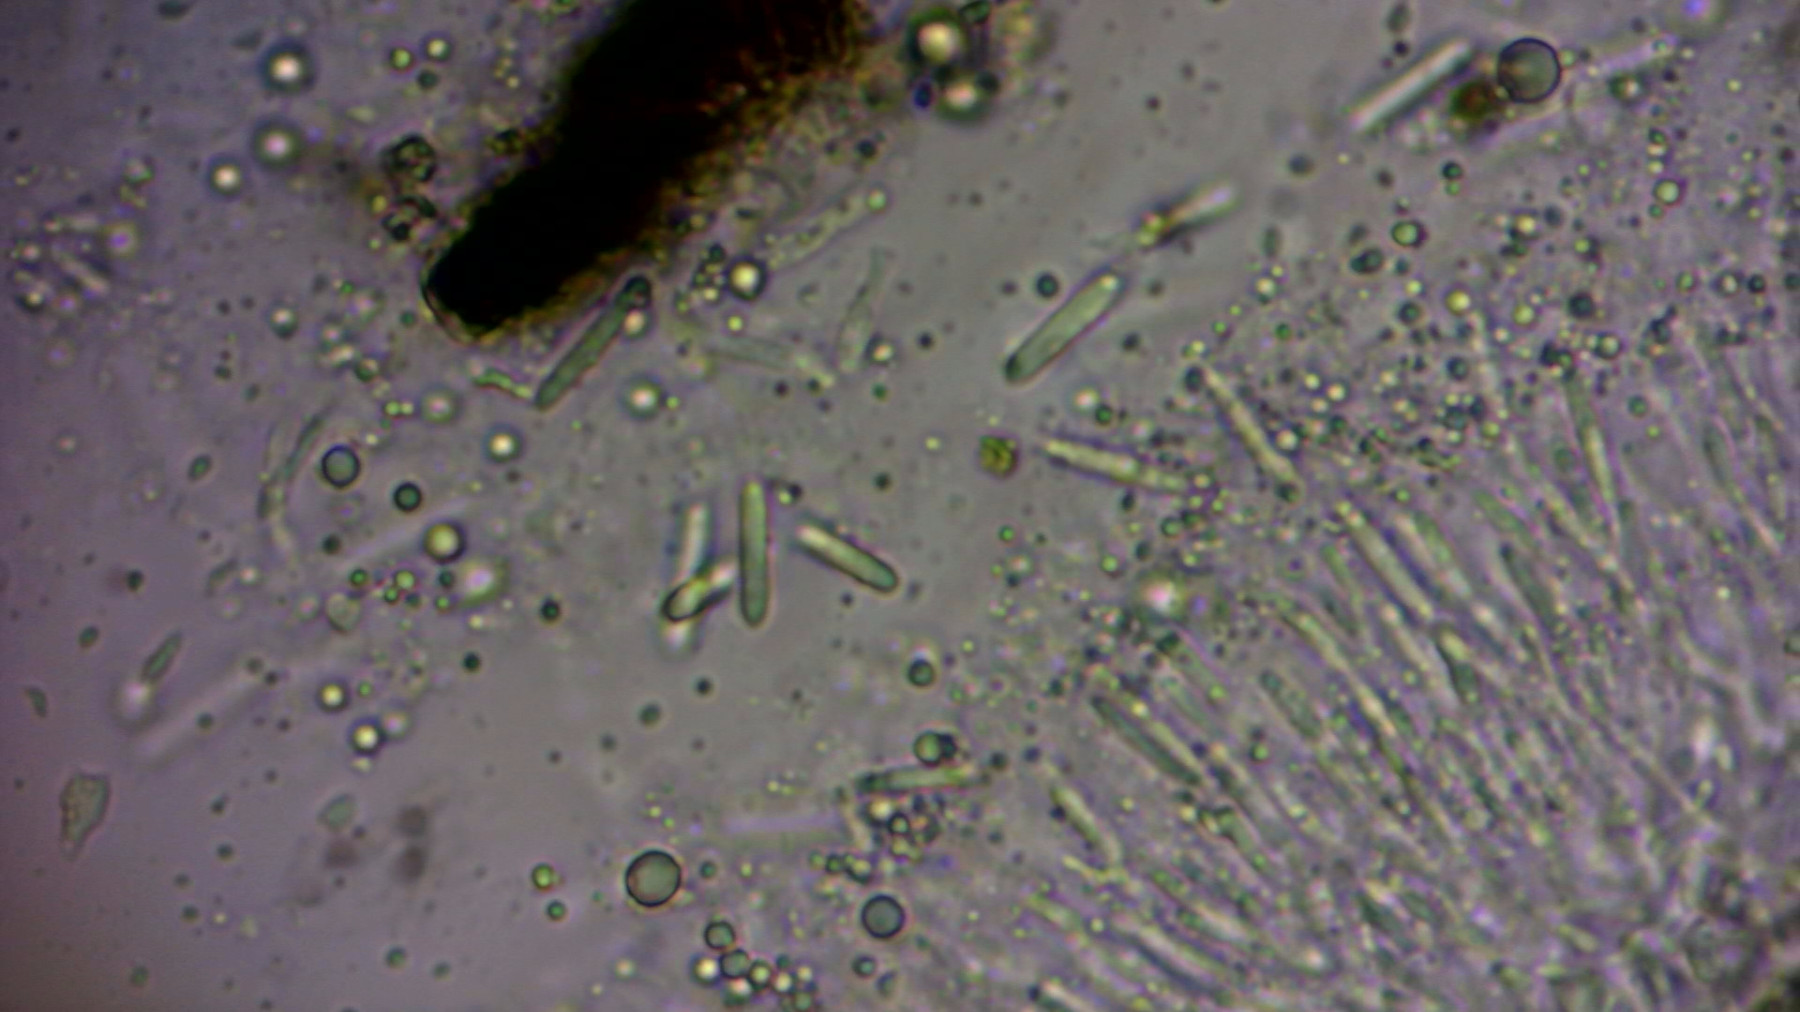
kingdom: Fungi
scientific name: Fungi
